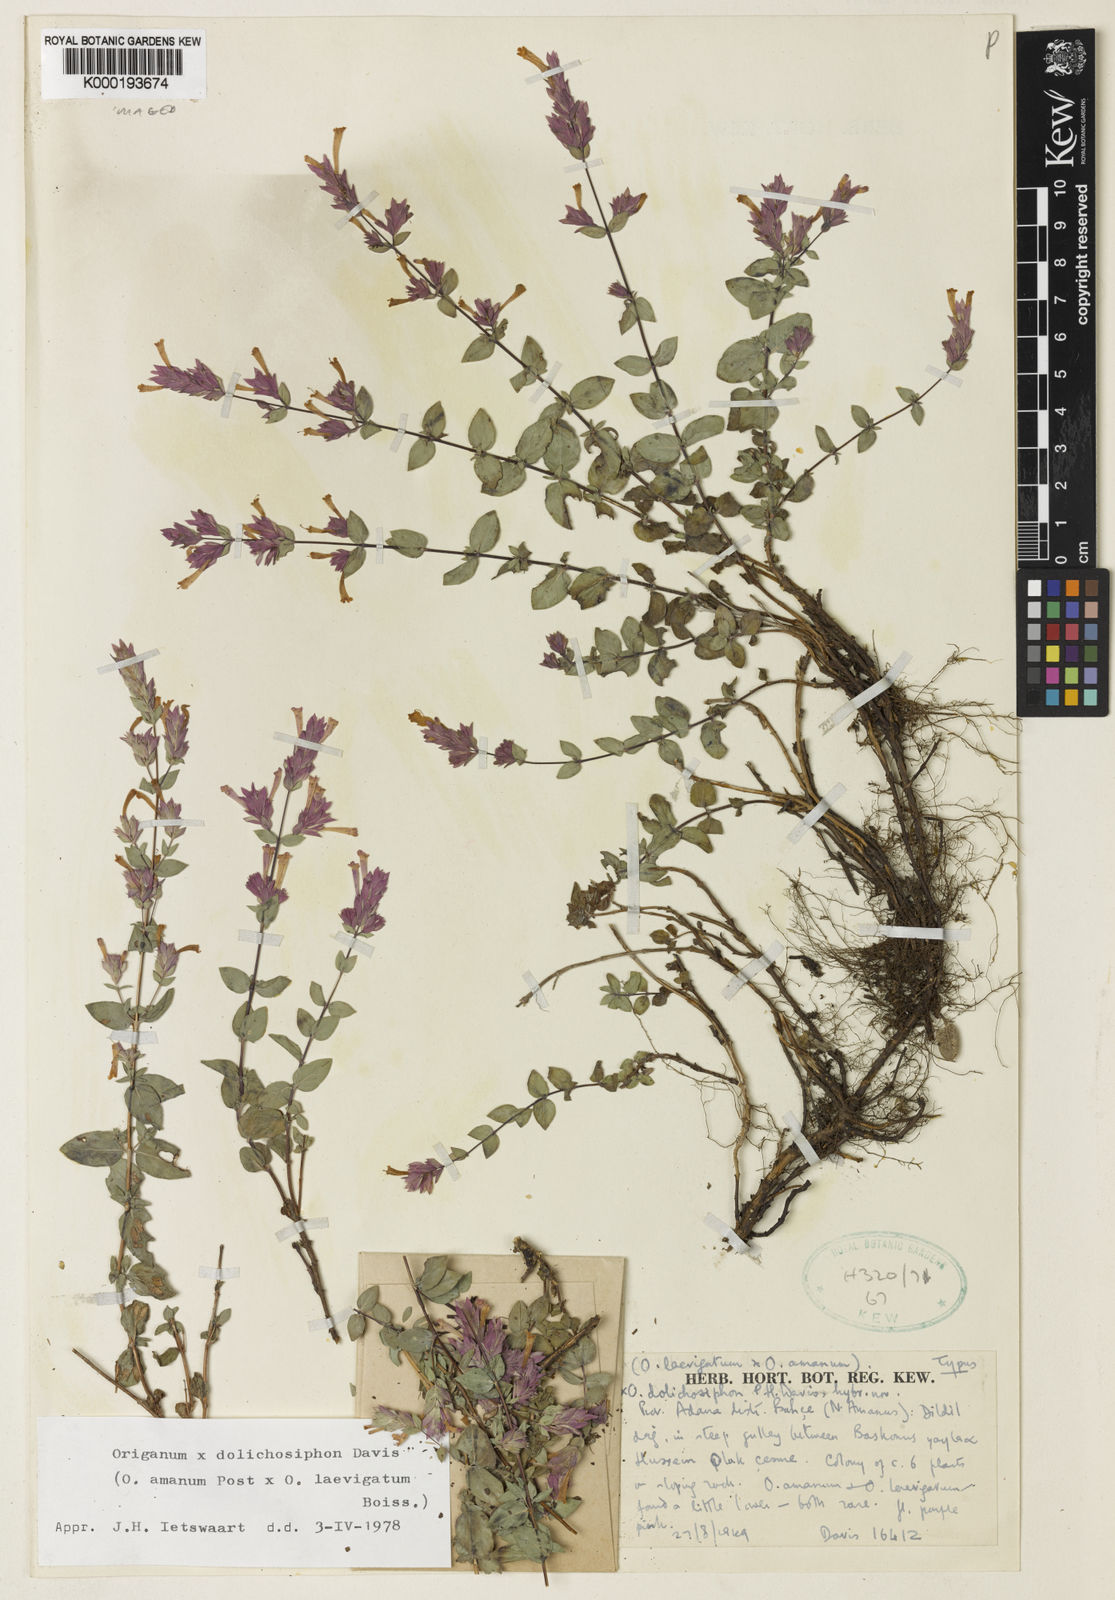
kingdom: Plantae
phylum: Tracheophyta
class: Magnoliopsida
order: Lamiales
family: Lamiaceae
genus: Origanum
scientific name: Origanum dolichosiphon
